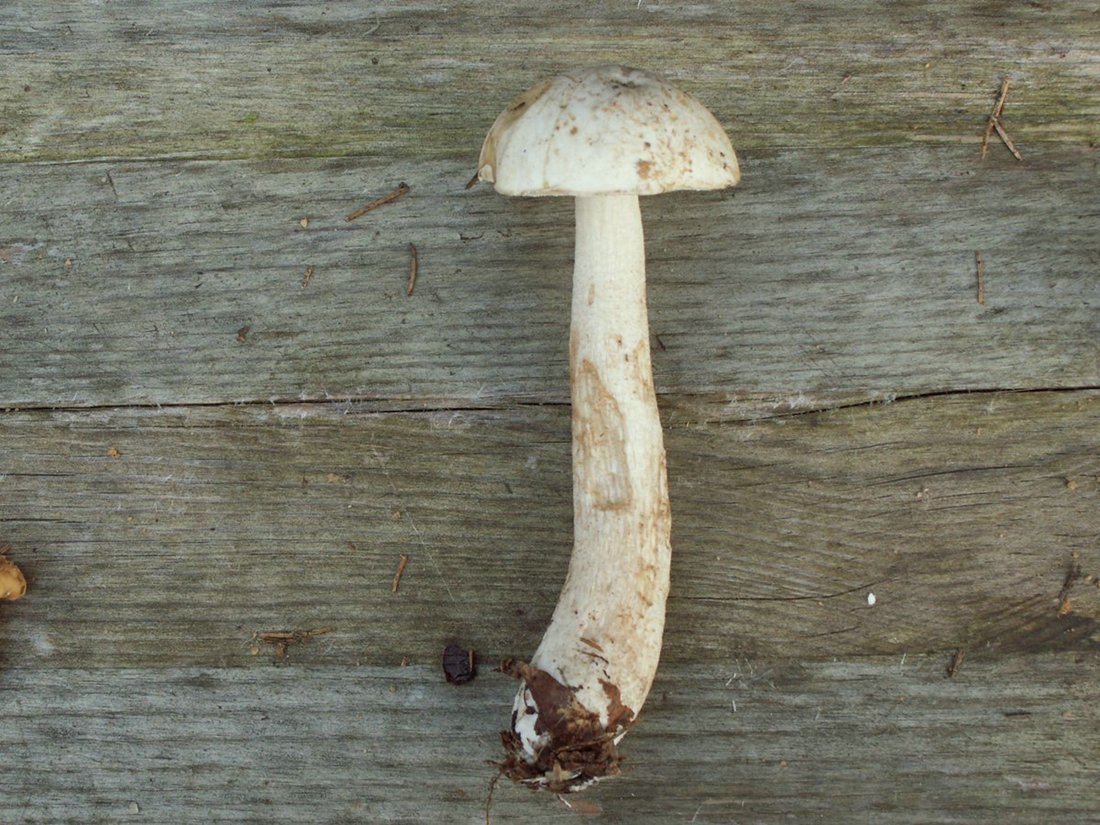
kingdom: Fungi
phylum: Basidiomycota
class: Agaricomycetes
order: Boletales
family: Boletaceae
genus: Leccinum
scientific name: Leccinum scabrum
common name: hvid skælrørhat
